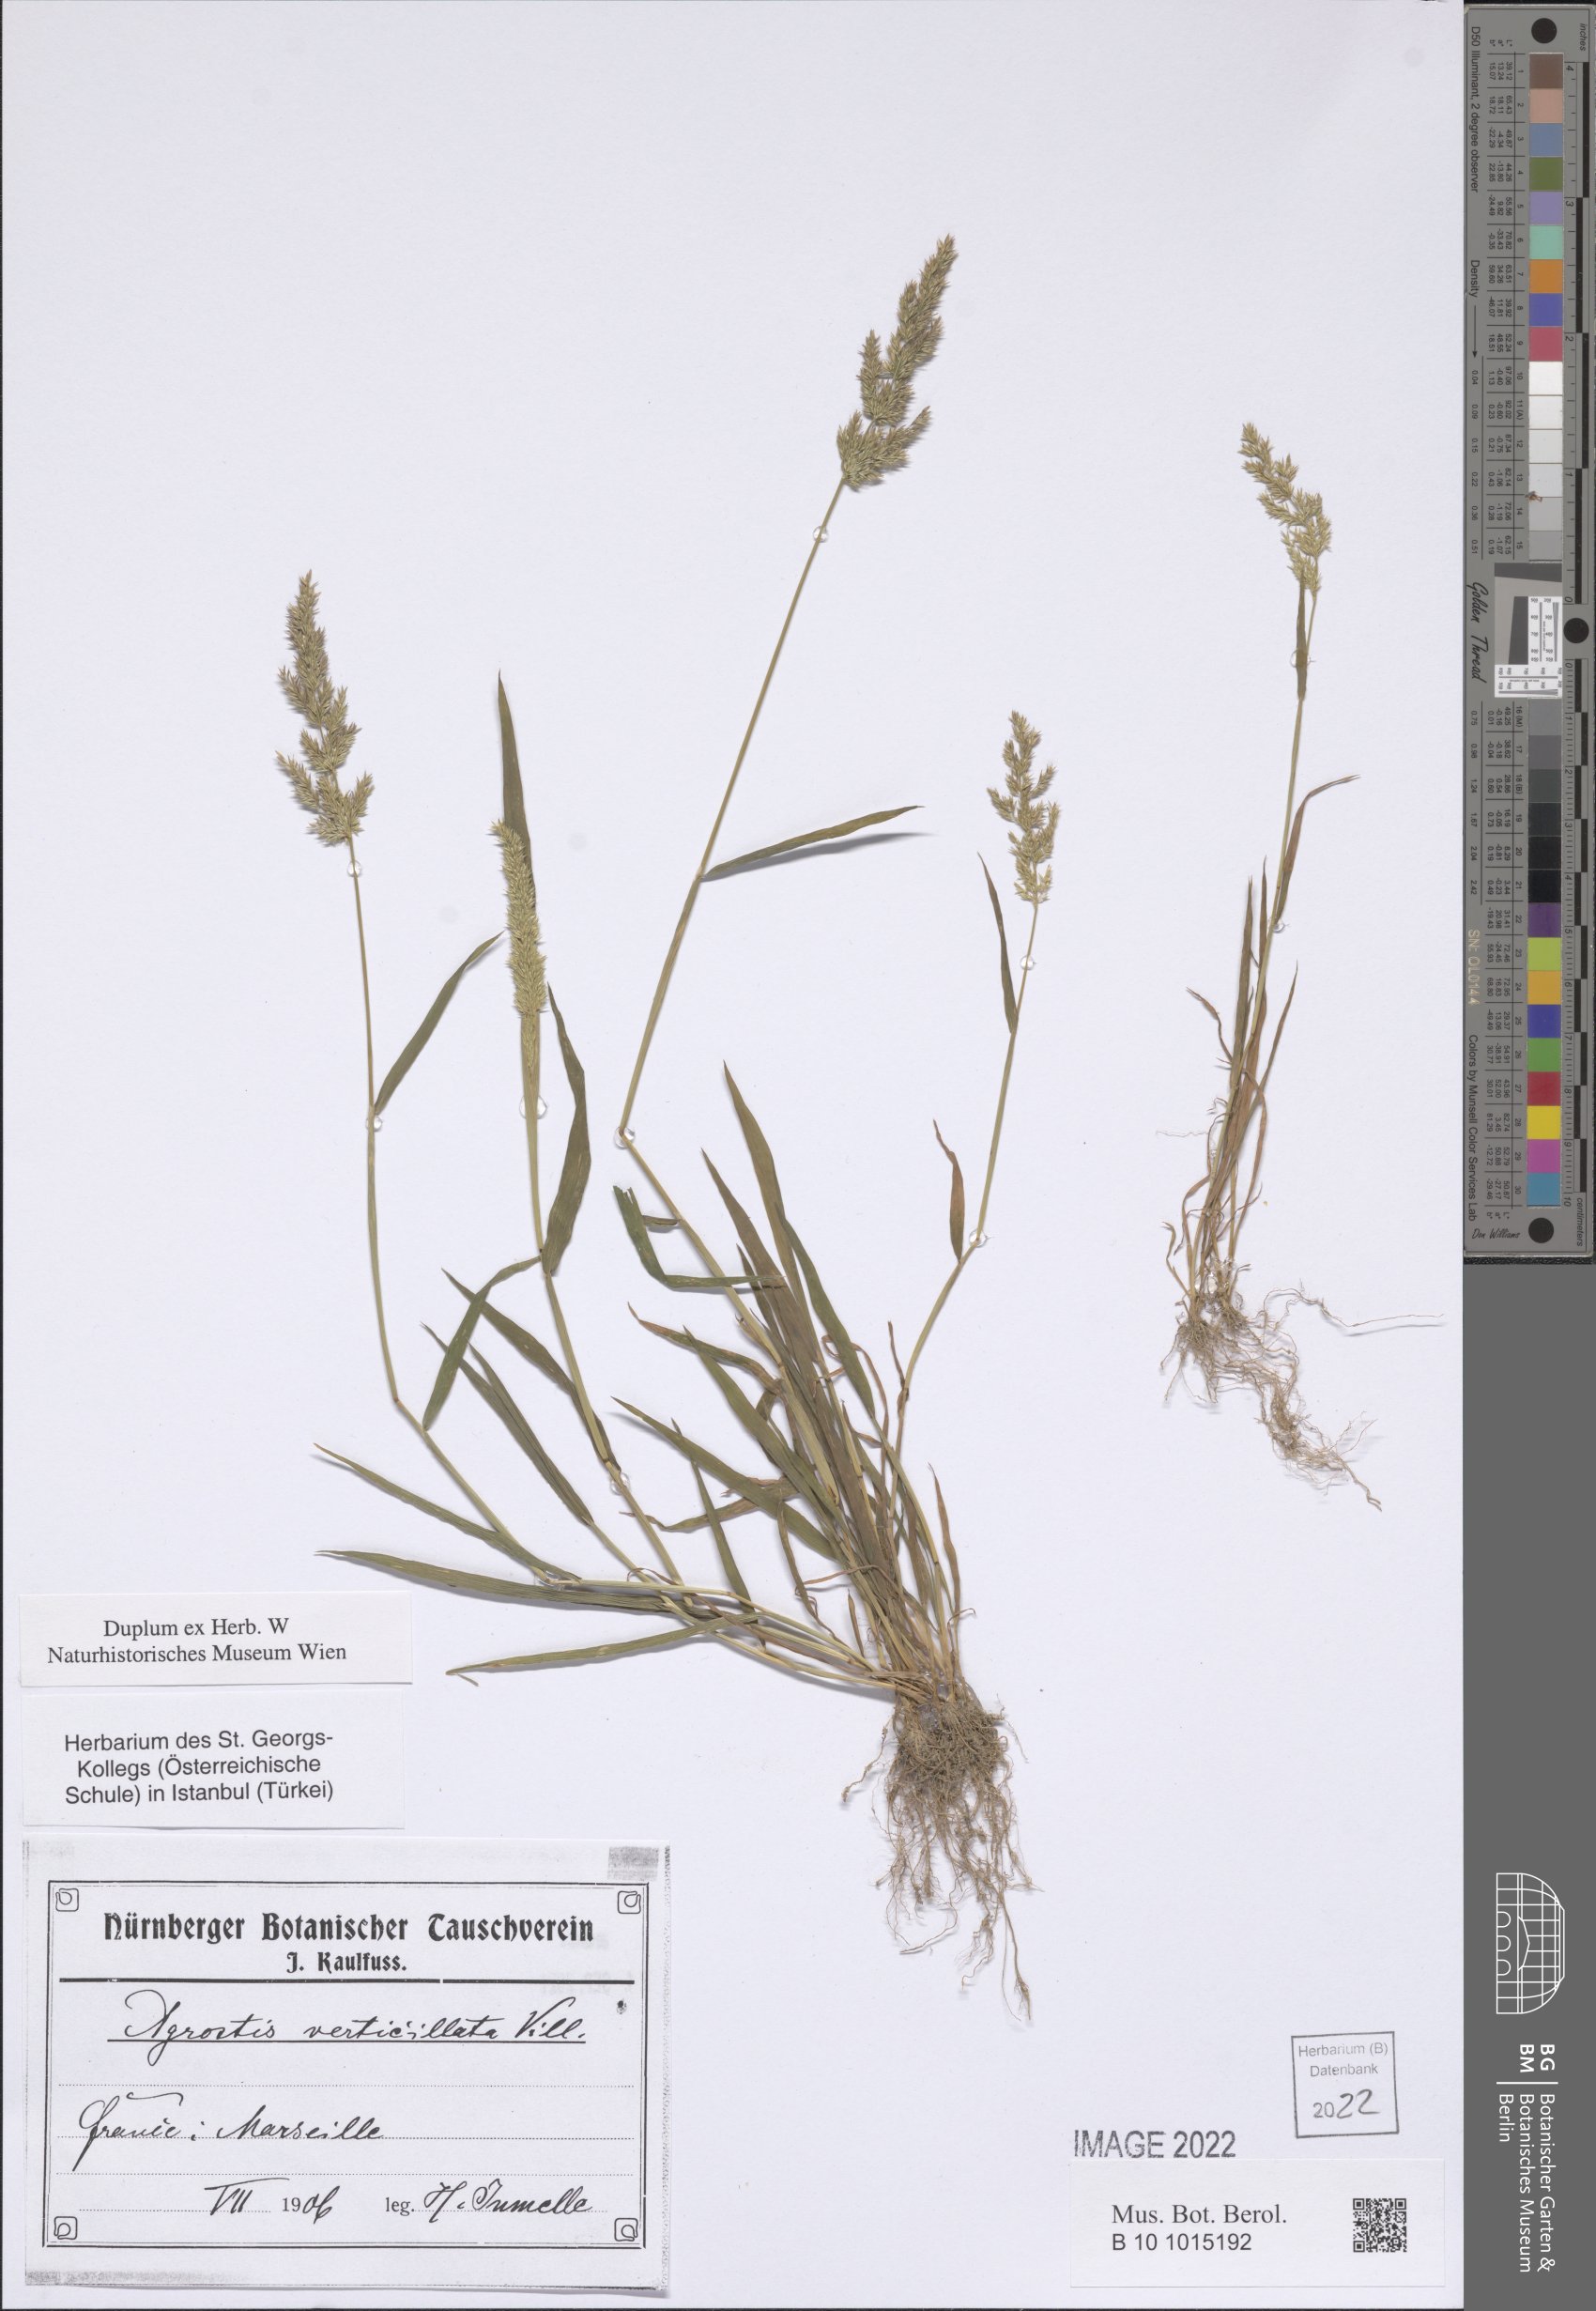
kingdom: Plantae
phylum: Tracheophyta
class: Liliopsida
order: Poales
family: Poaceae
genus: Polypogon
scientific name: Polypogon viridis
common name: Water bent
